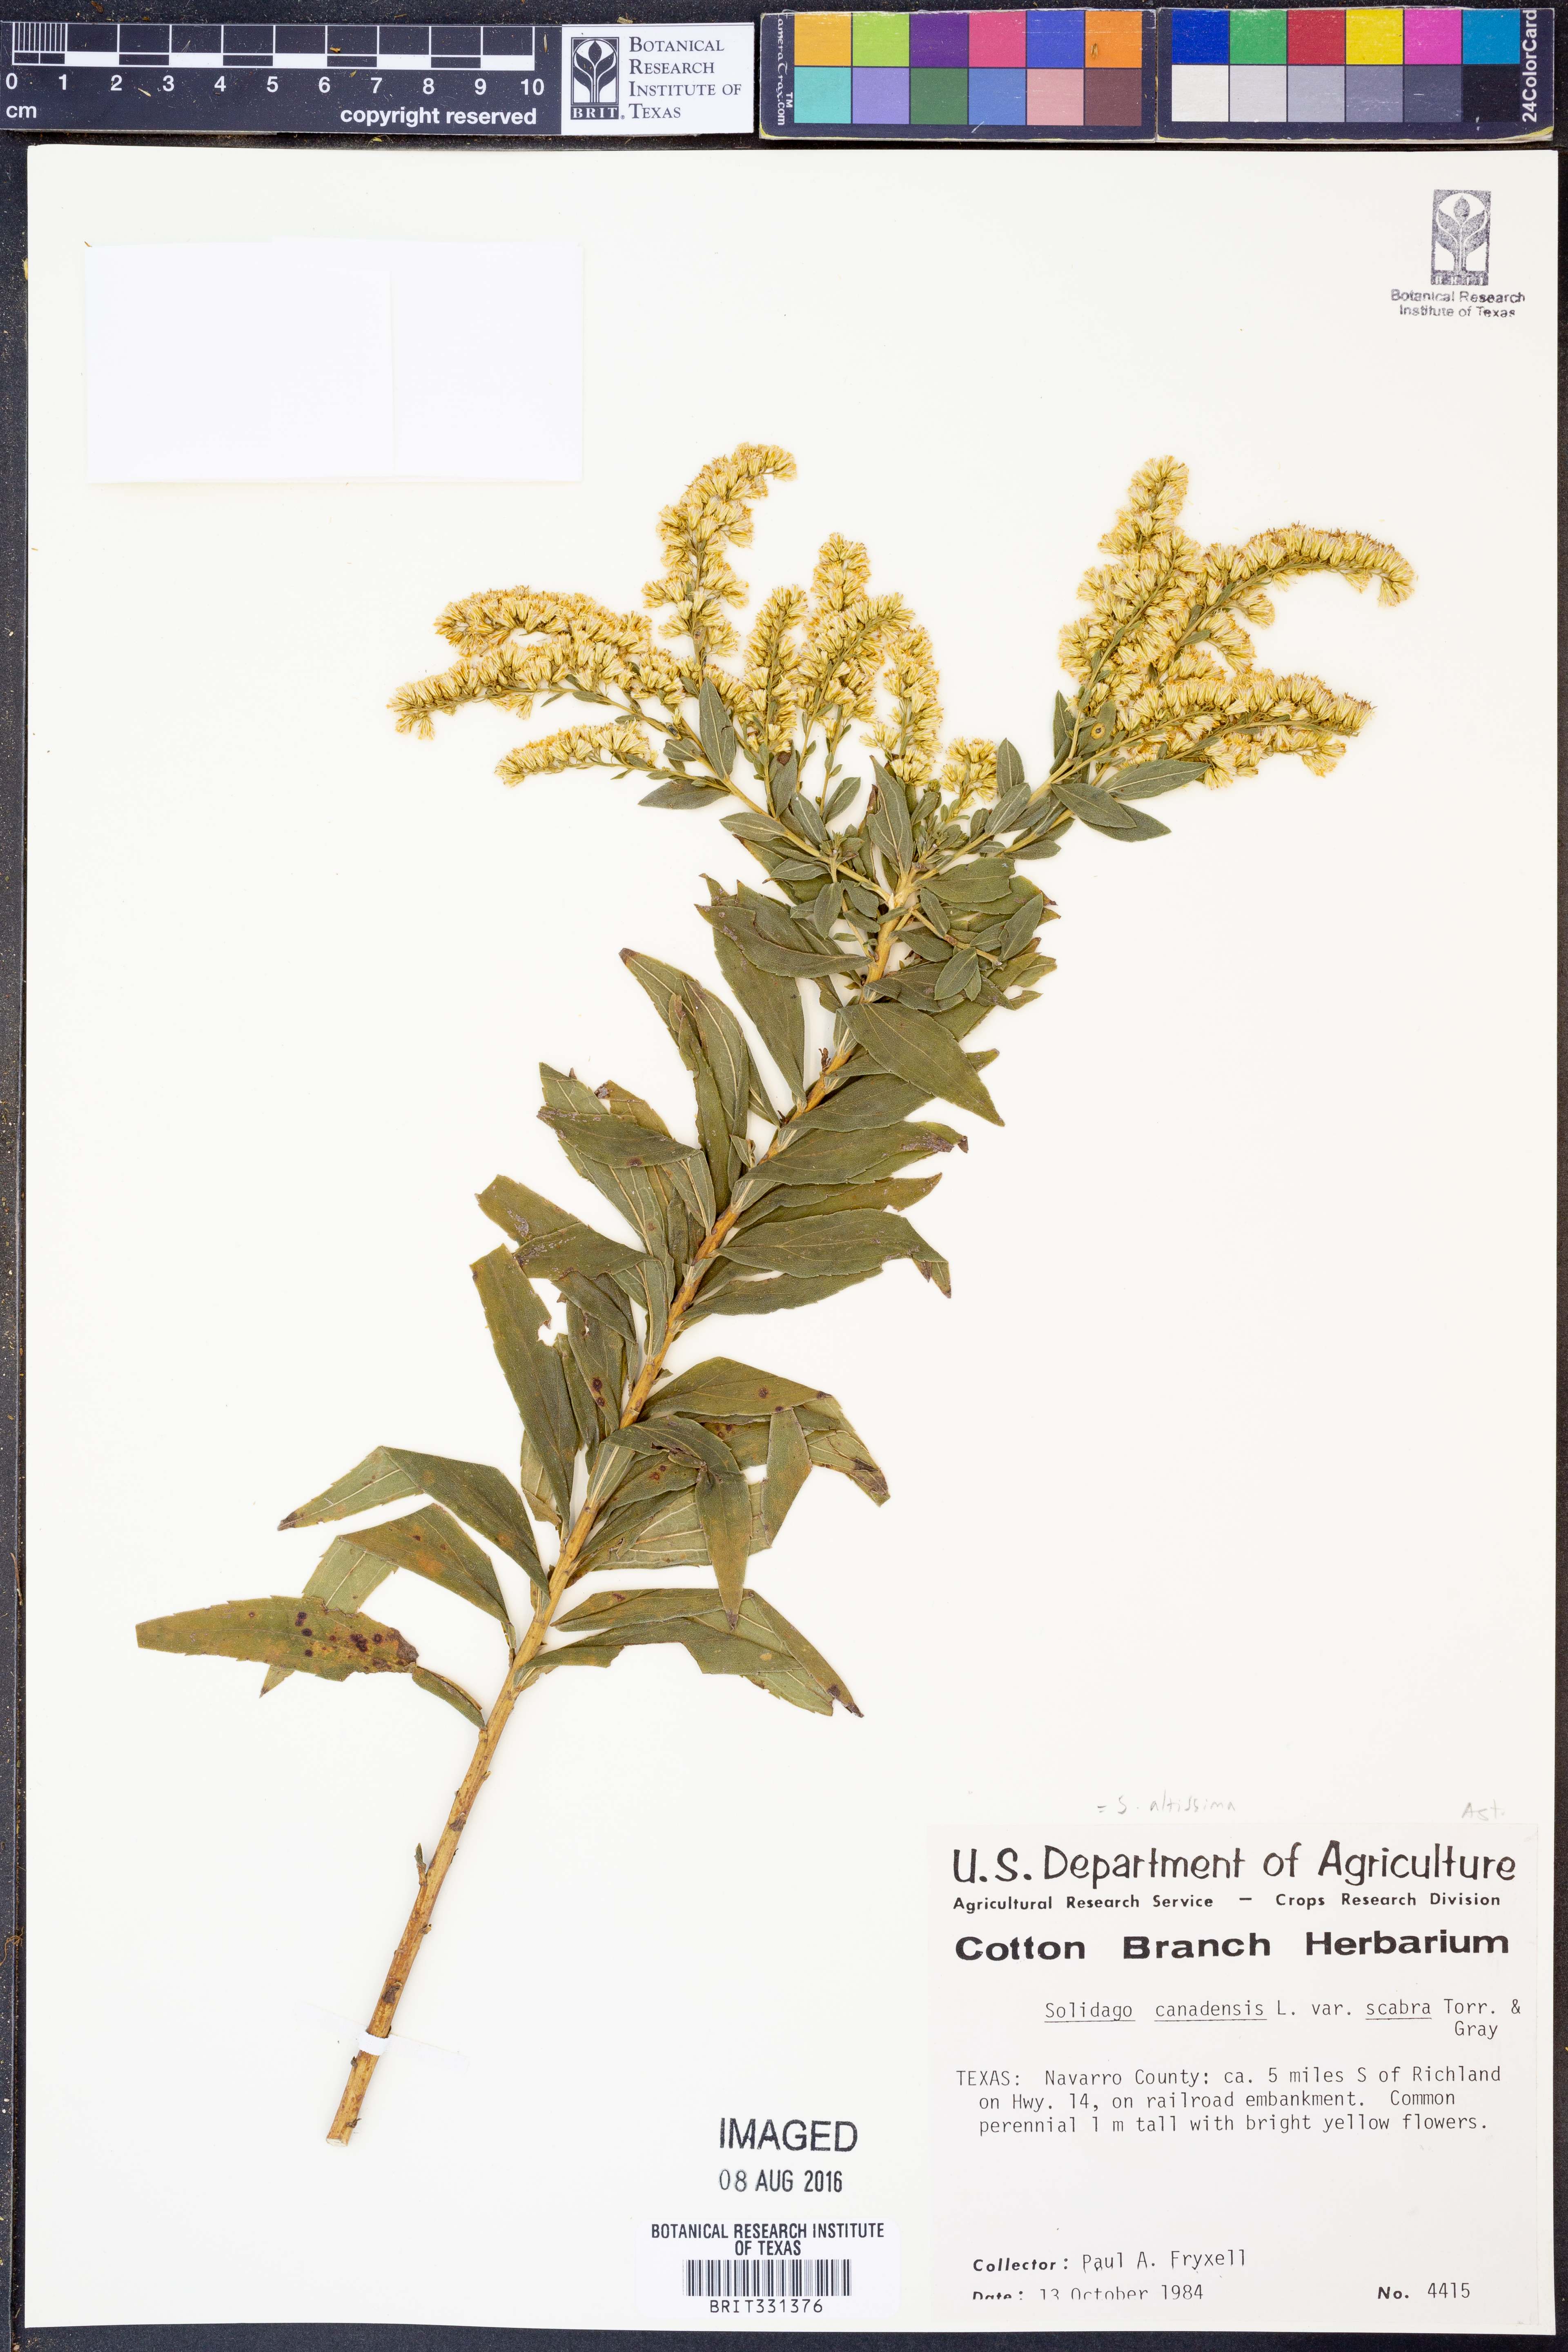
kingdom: Plantae
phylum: Tracheophyta
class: Magnoliopsida
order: Asterales
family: Asteraceae
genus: Solidago
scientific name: Solidago altissima
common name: Late goldenrod
